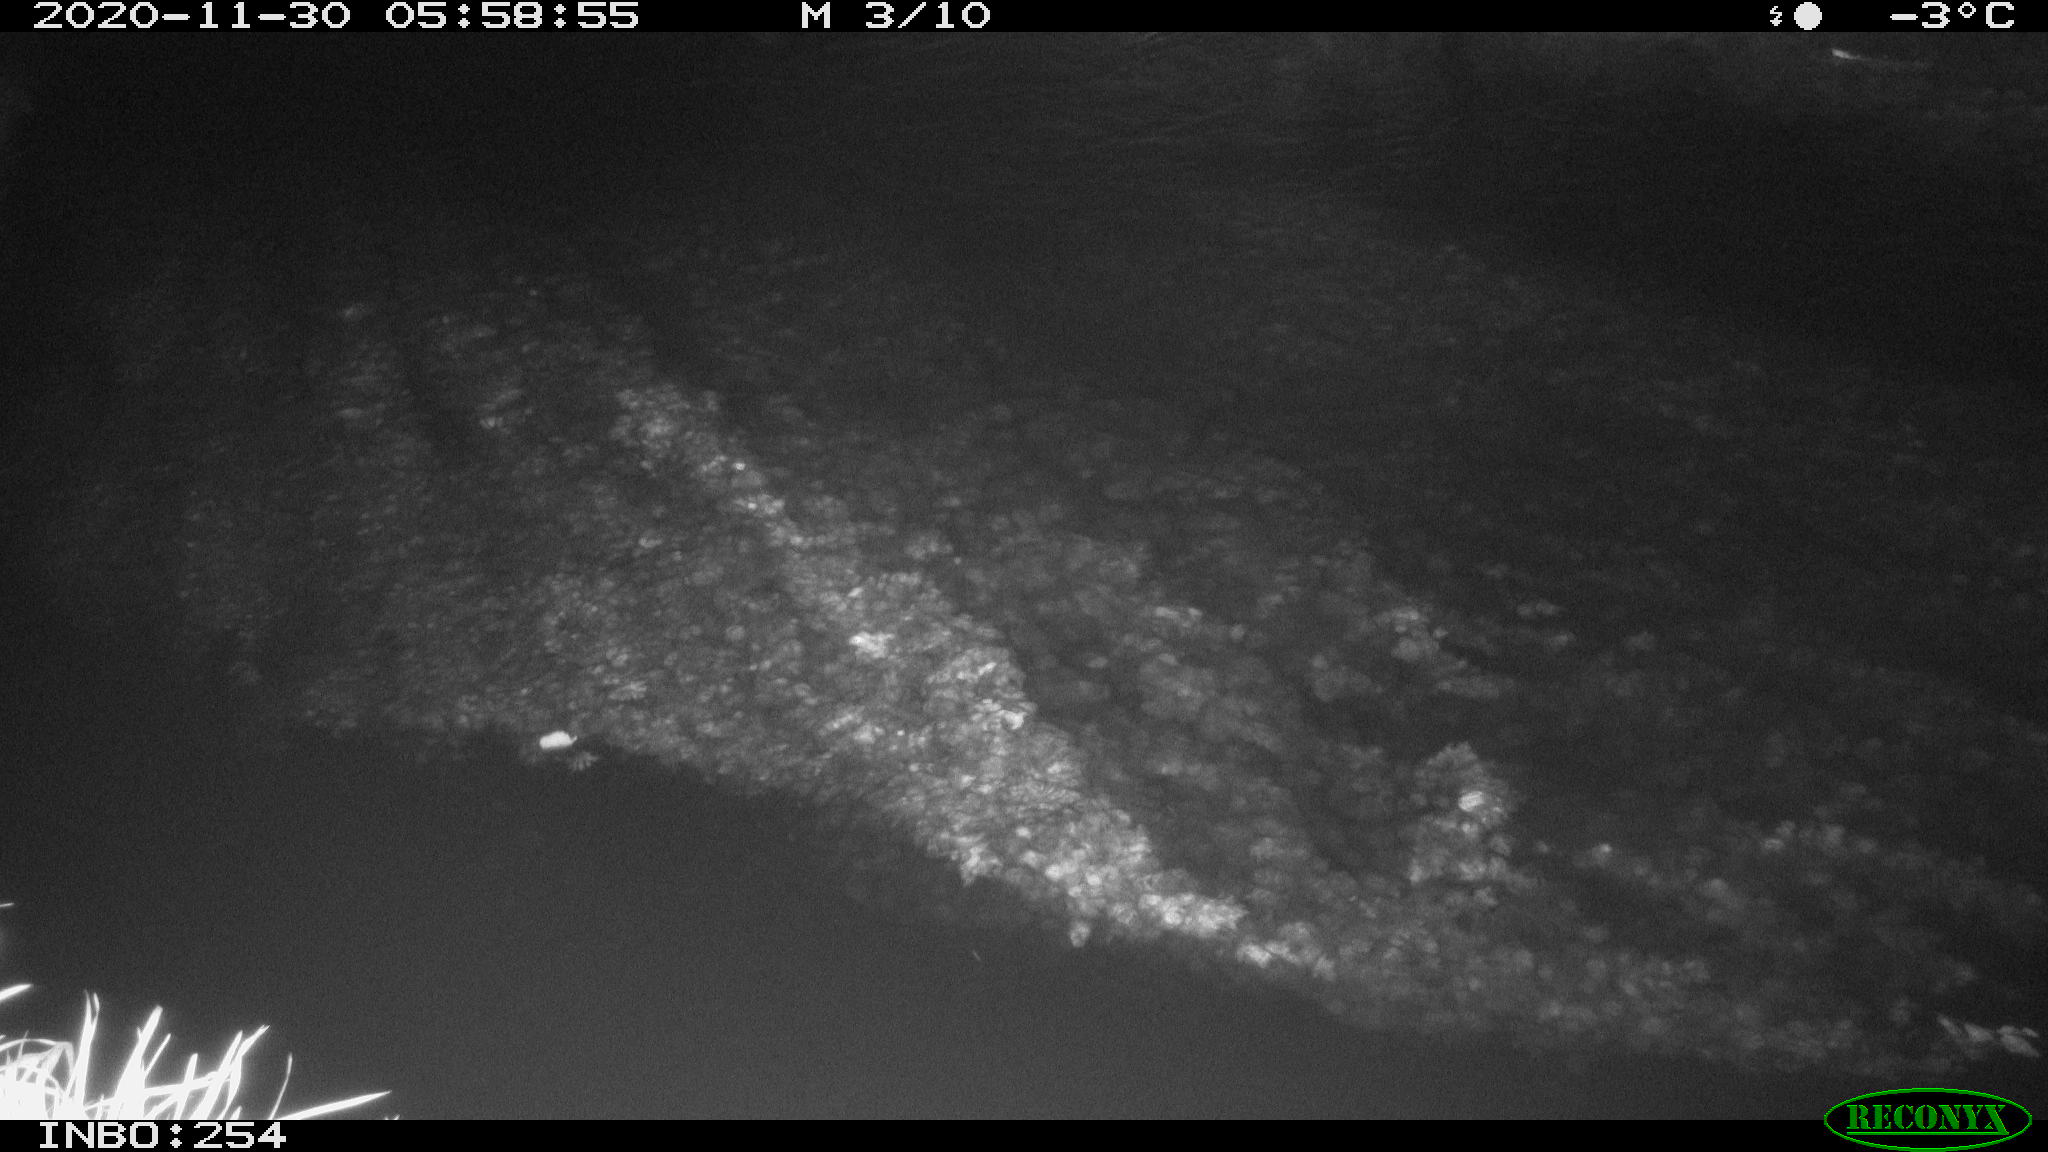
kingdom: Animalia
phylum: Chordata
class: Aves
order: Anseriformes
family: Anatidae
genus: Anas
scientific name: Anas platyrhynchos
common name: Mallard
